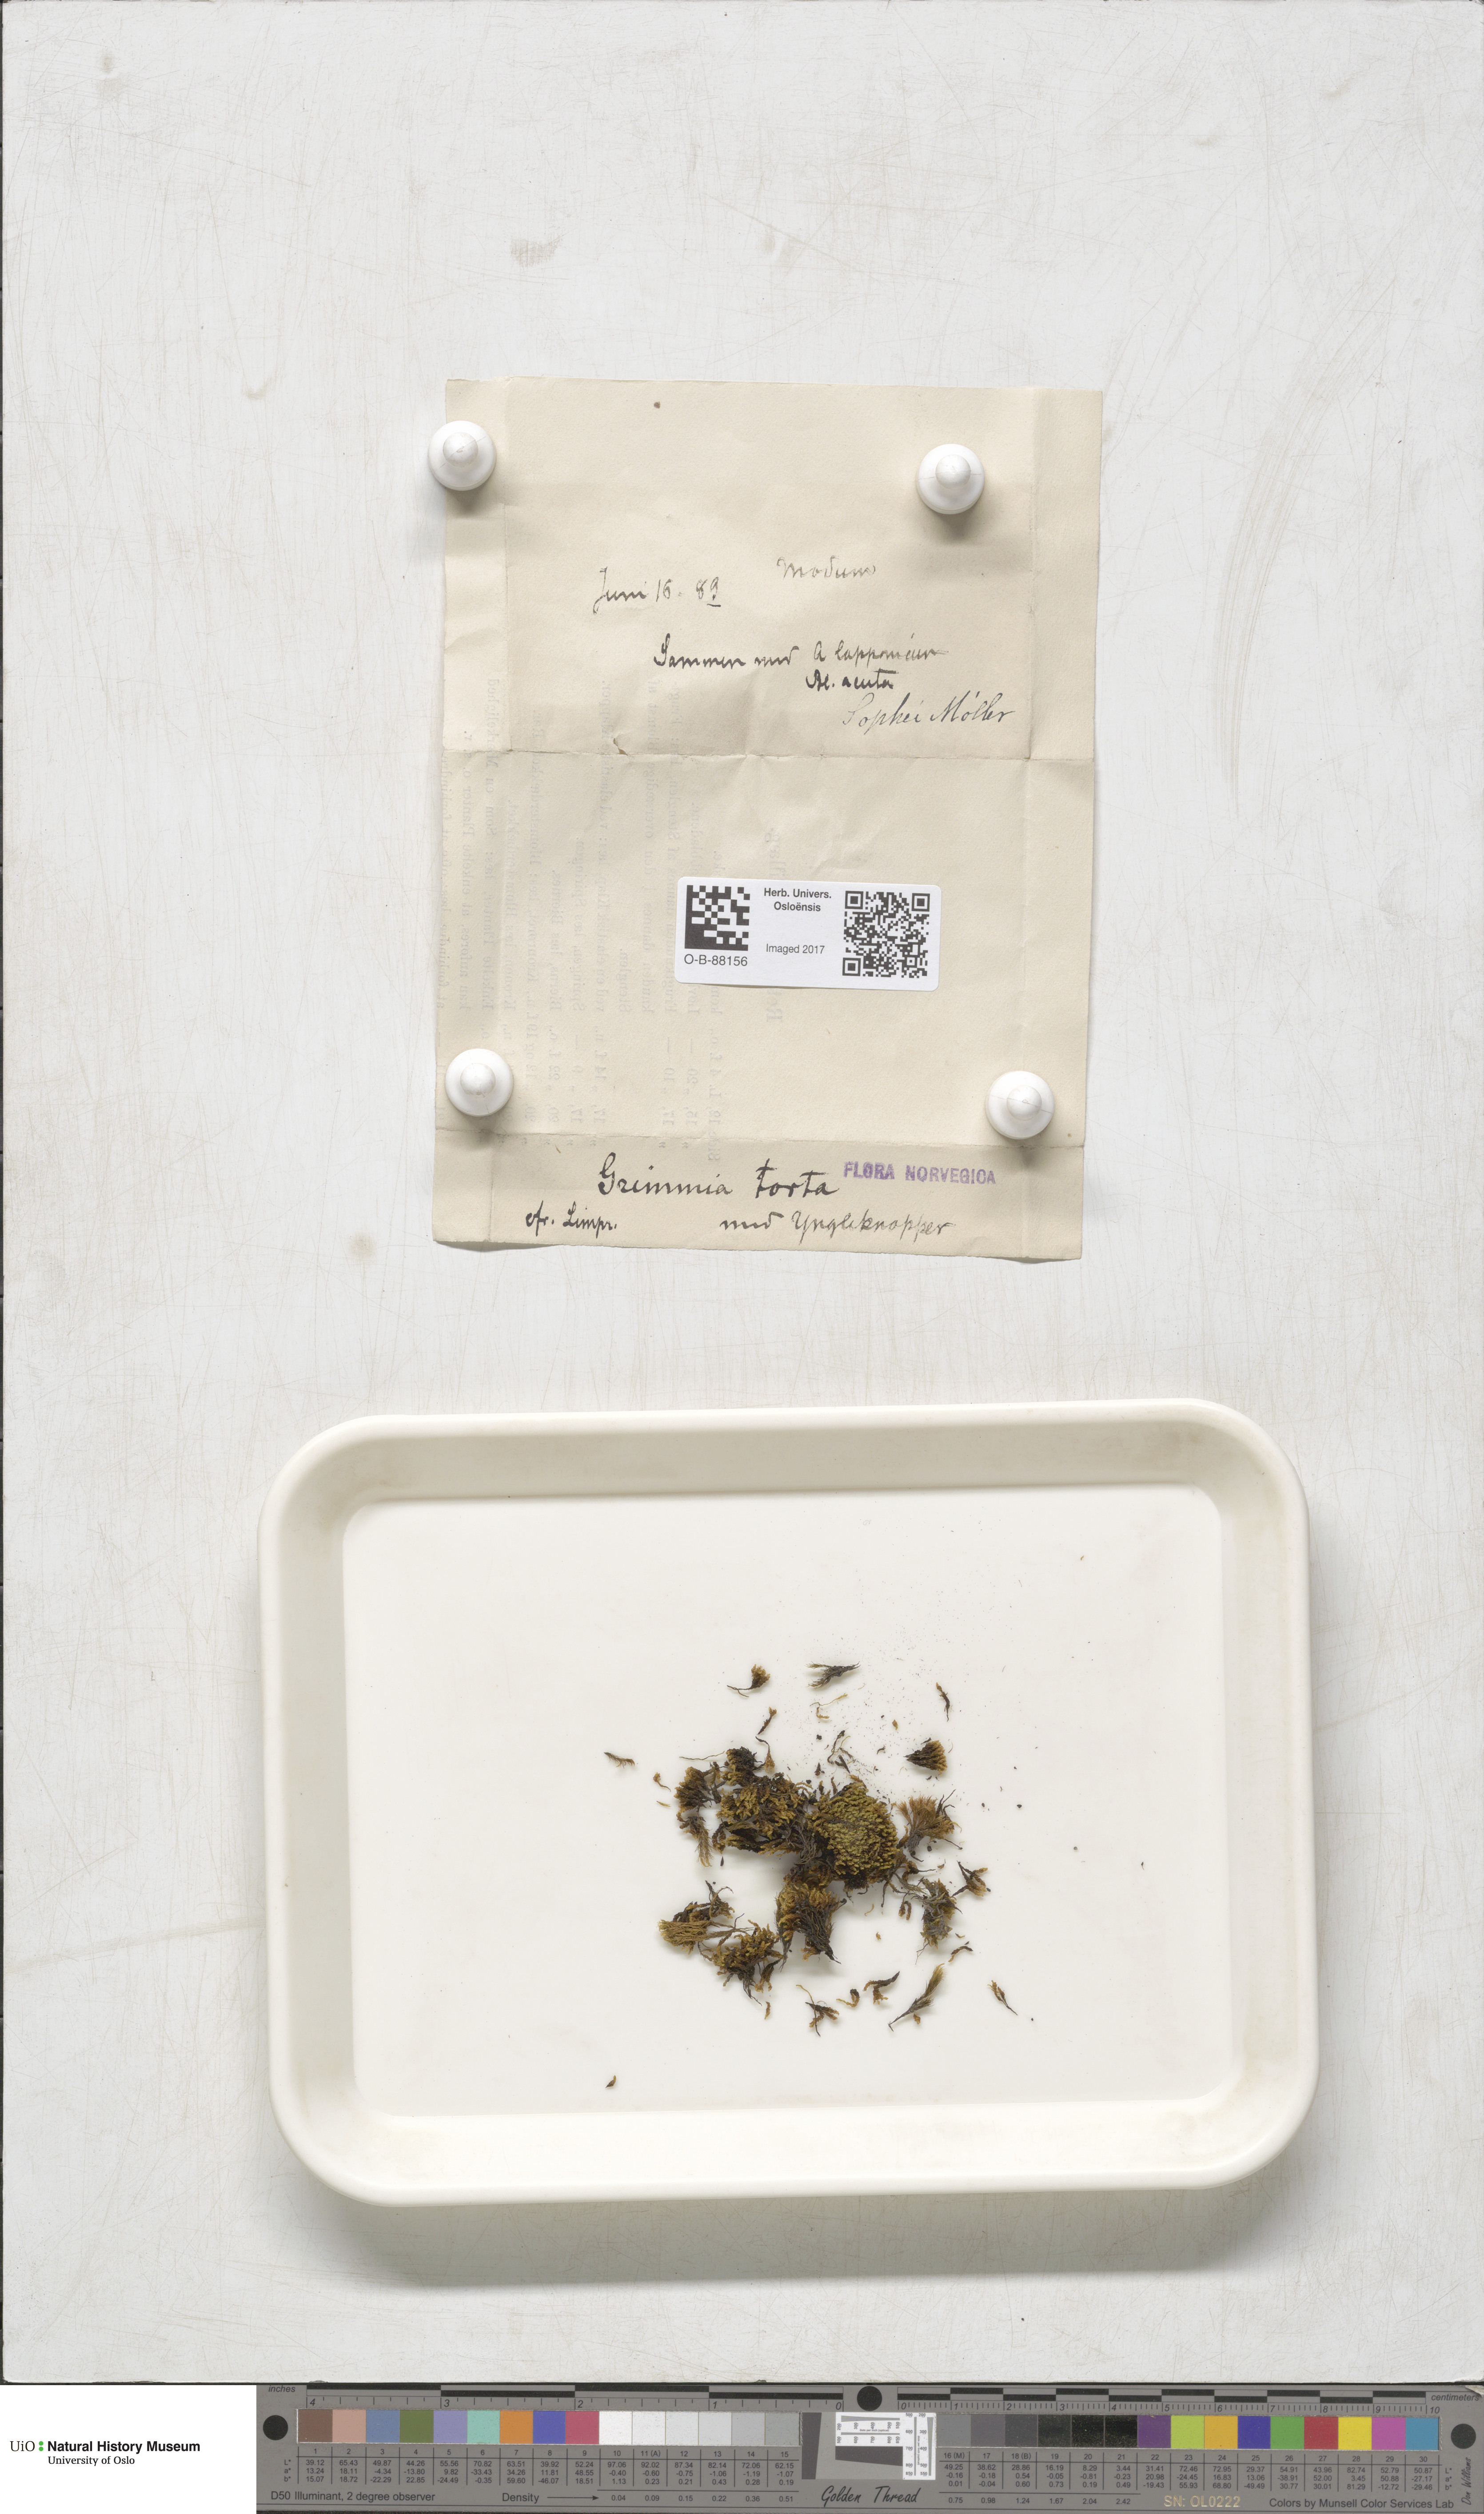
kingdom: Plantae
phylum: Bryophyta
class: Bryopsida
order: Grimmiales
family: Grimmiaceae
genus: Grimmia
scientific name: Grimmia torquata
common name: Twisted grimmia
